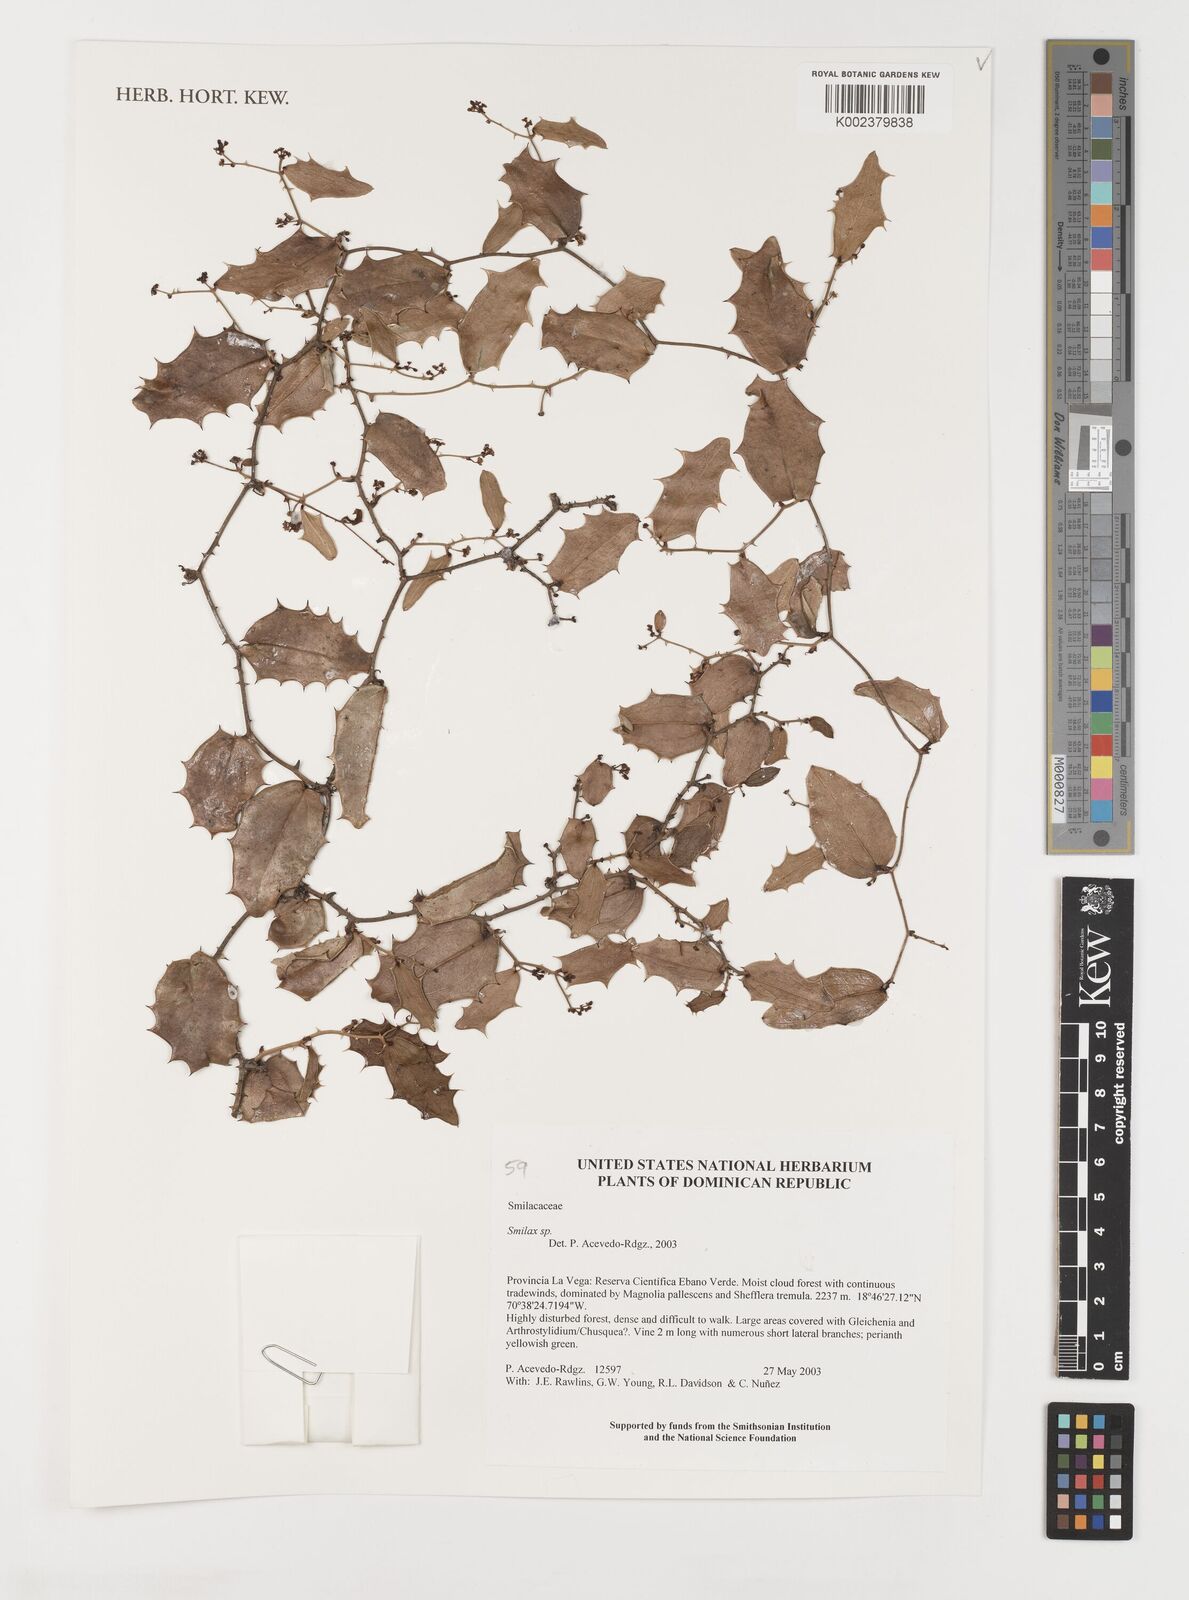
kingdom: Plantae
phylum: Tracheophyta
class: Liliopsida
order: Liliales
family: Smilacaceae
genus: Smilax
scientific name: Smilax
